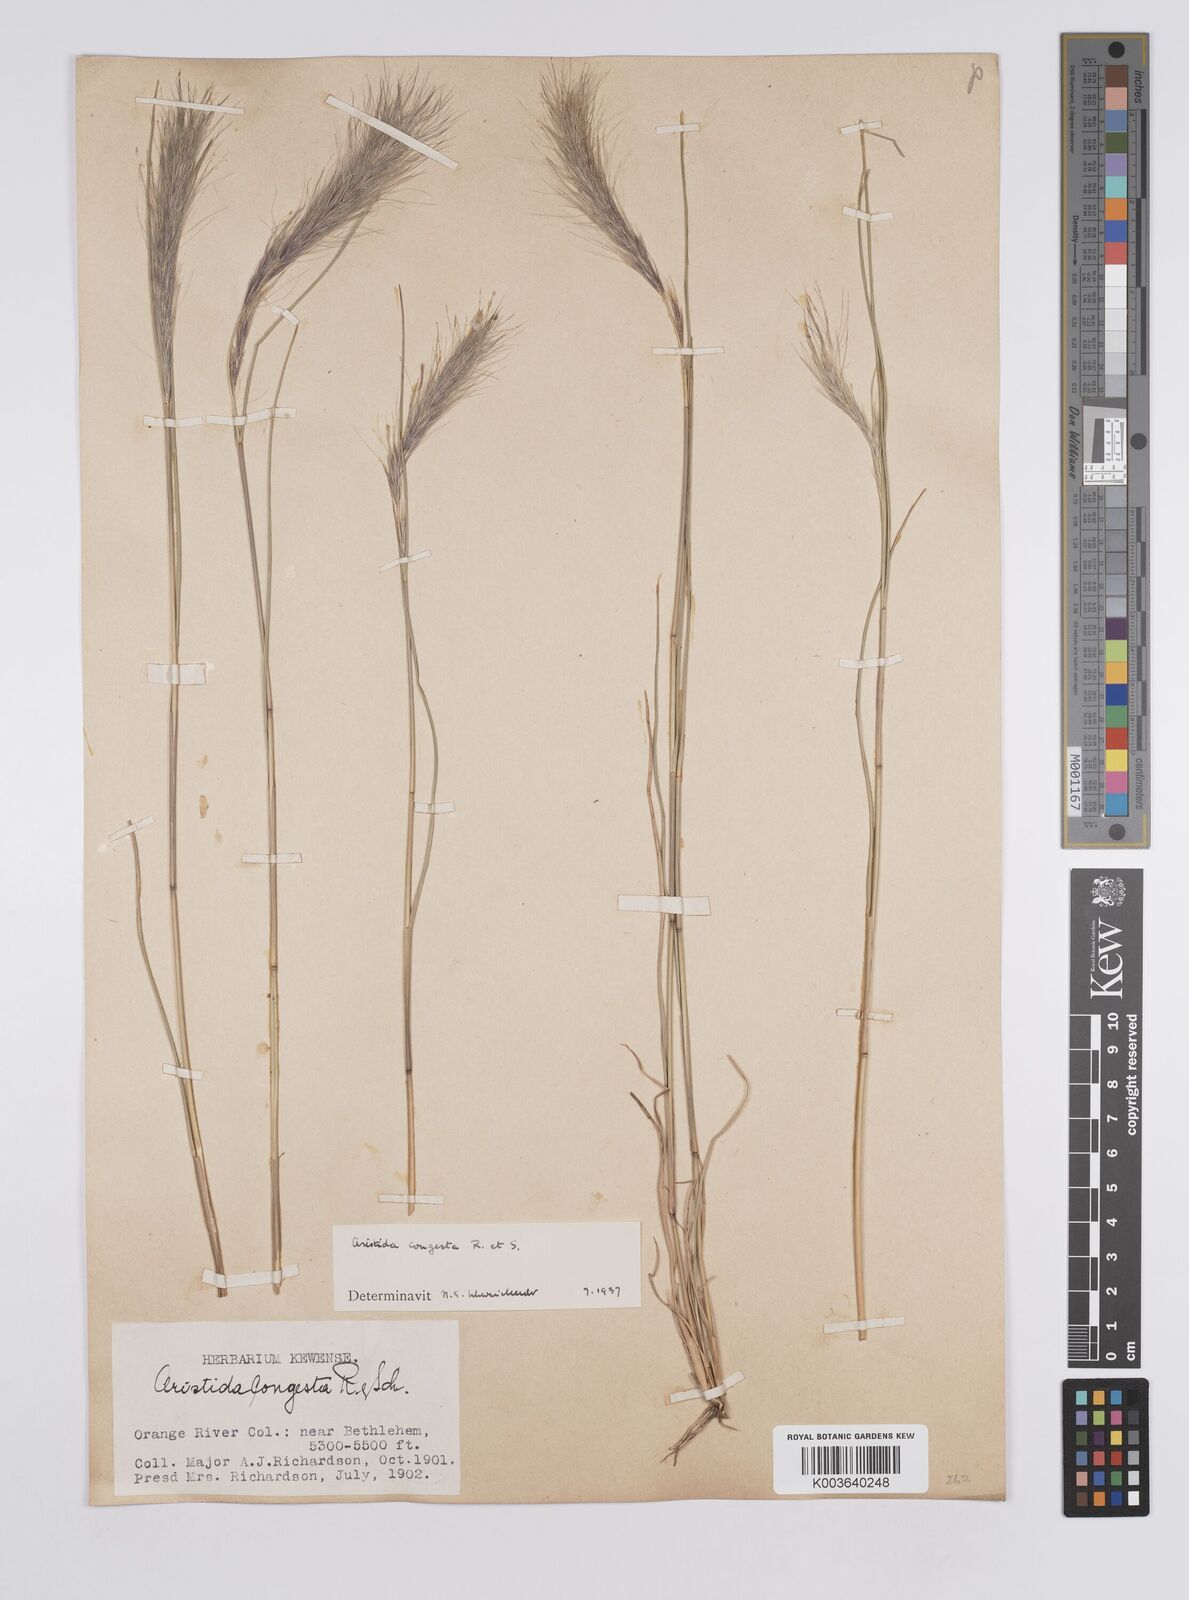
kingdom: Plantae
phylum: Tracheophyta
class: Liliopsida
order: Poales
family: Poaceae
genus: Aristida
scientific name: Aristida congesta
